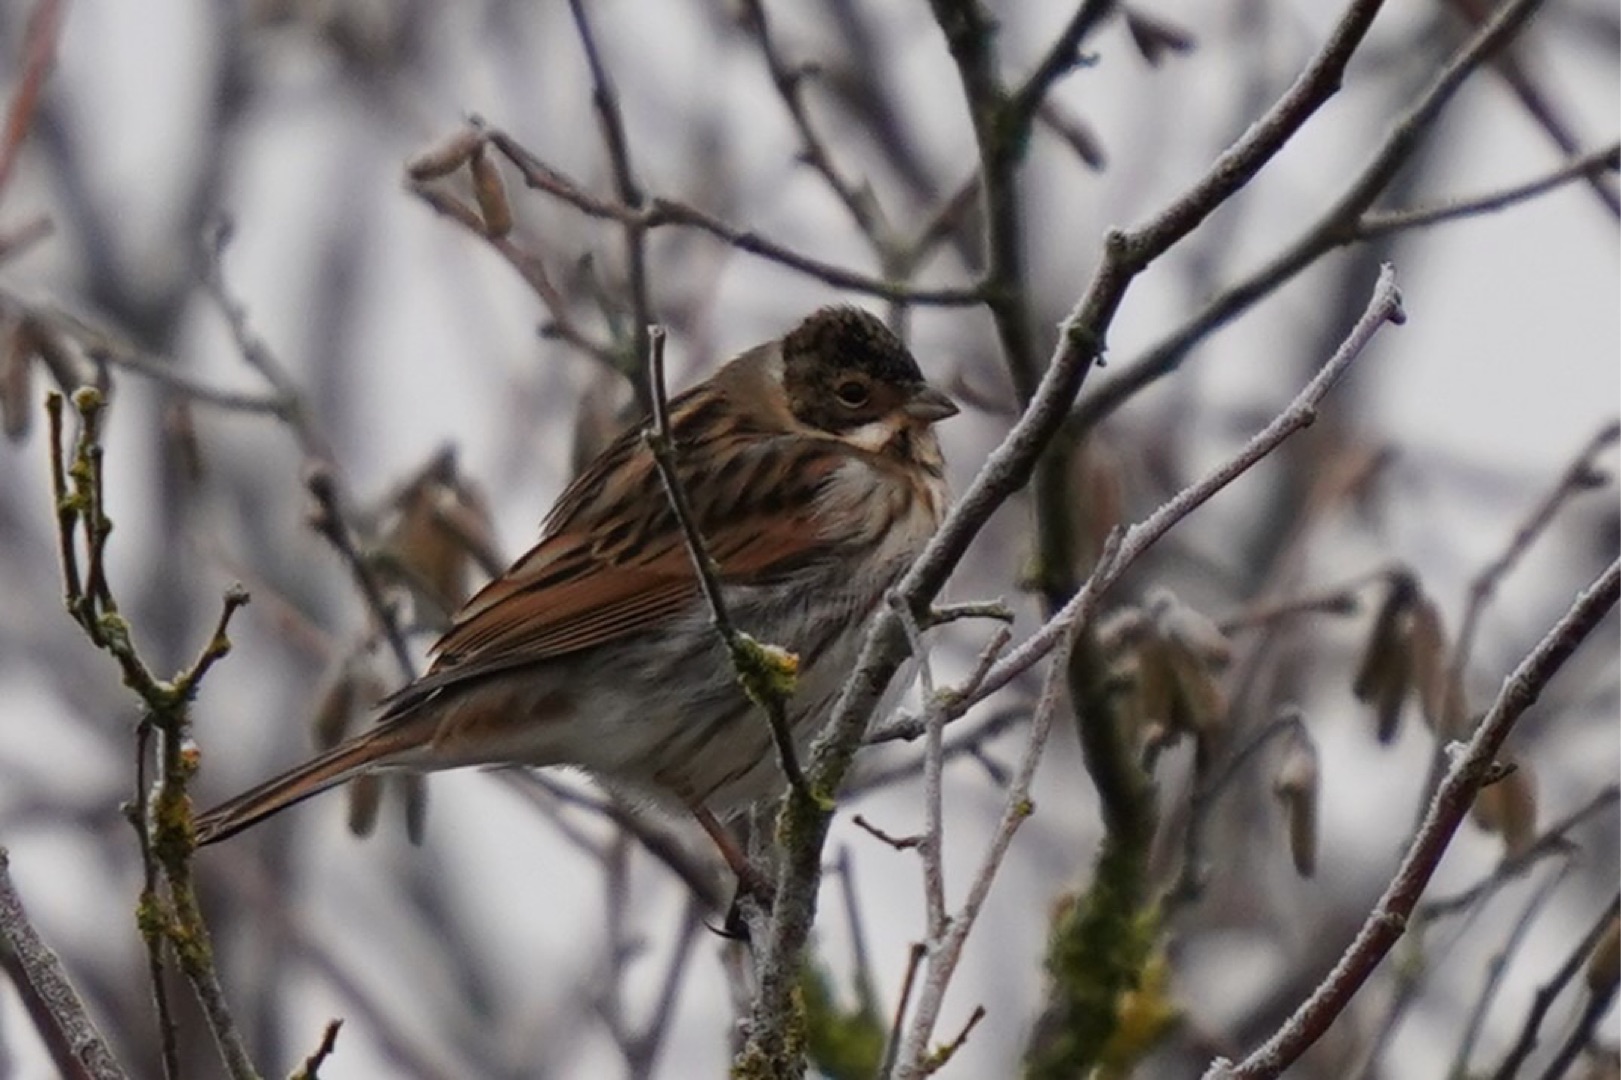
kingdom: Animalia
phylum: Chordata
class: Aves
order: Passeriformes
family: Emberizidae
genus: Emberiza
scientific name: Emberiza schoeniclus
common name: Rørspurv
